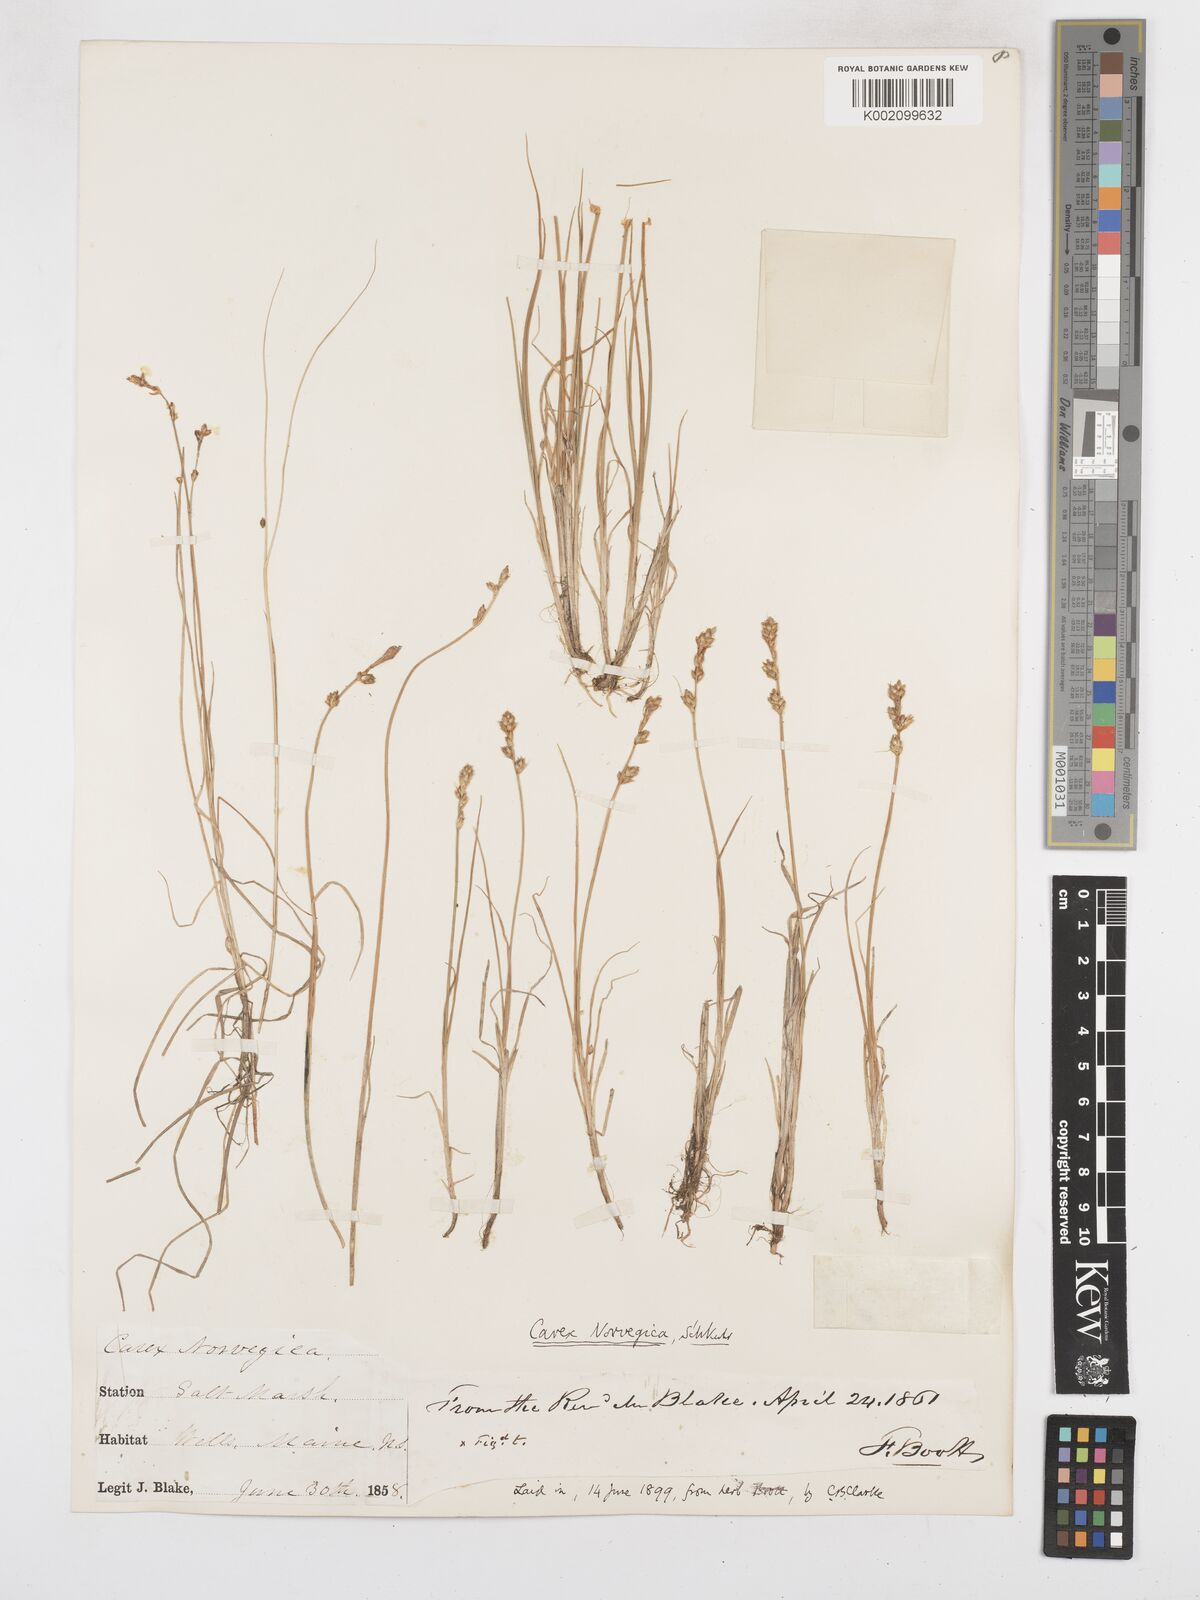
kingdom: Plantae
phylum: Tracheophyta
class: Liliopsida
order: Poales
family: Cyperaceae
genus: Carex
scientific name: Carex mackenziei
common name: Mackenzie's sedge
